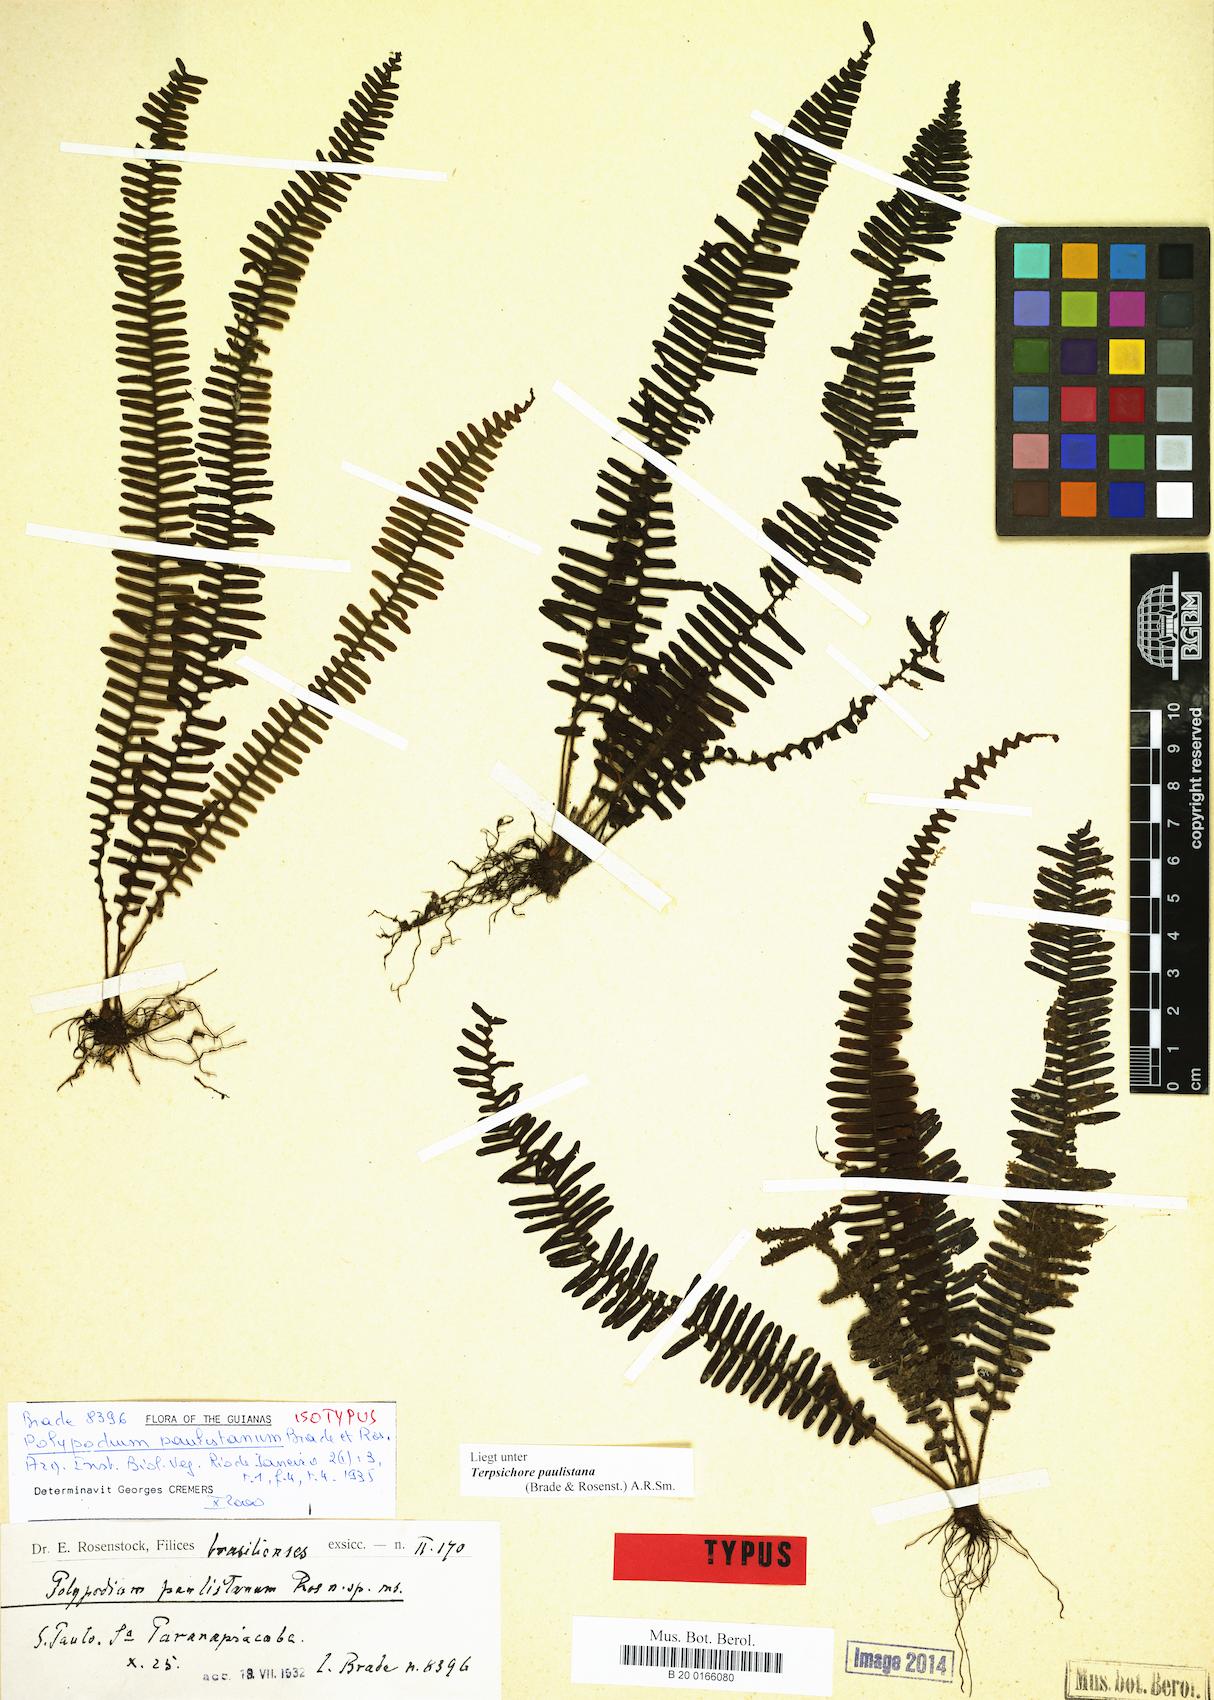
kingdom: Plantae
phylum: Tracheophyta
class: Polypodiopsida
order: Polypodiales
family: Polypodiaceae
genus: Terpsichore
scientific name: Terpsichore paulistana
